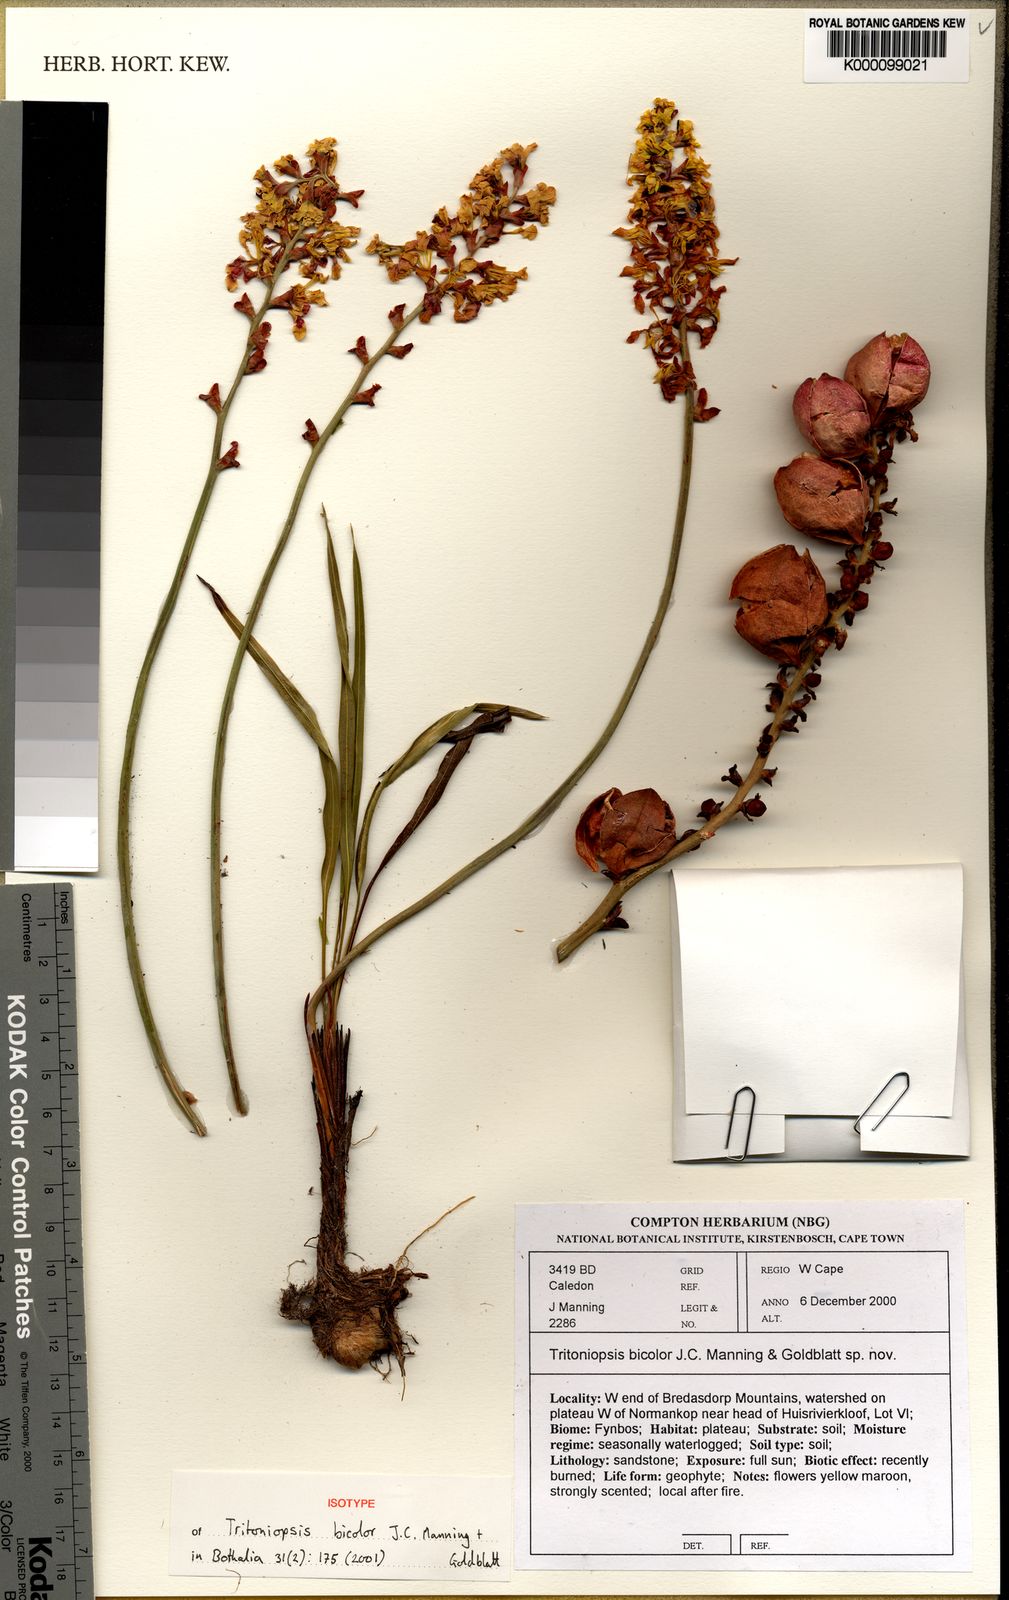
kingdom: Plantae
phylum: Tracheophyta
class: Liliopsida
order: Asparagales
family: Iridaceae
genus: Tritoniopsis
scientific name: Tritoniopsis bicolor
